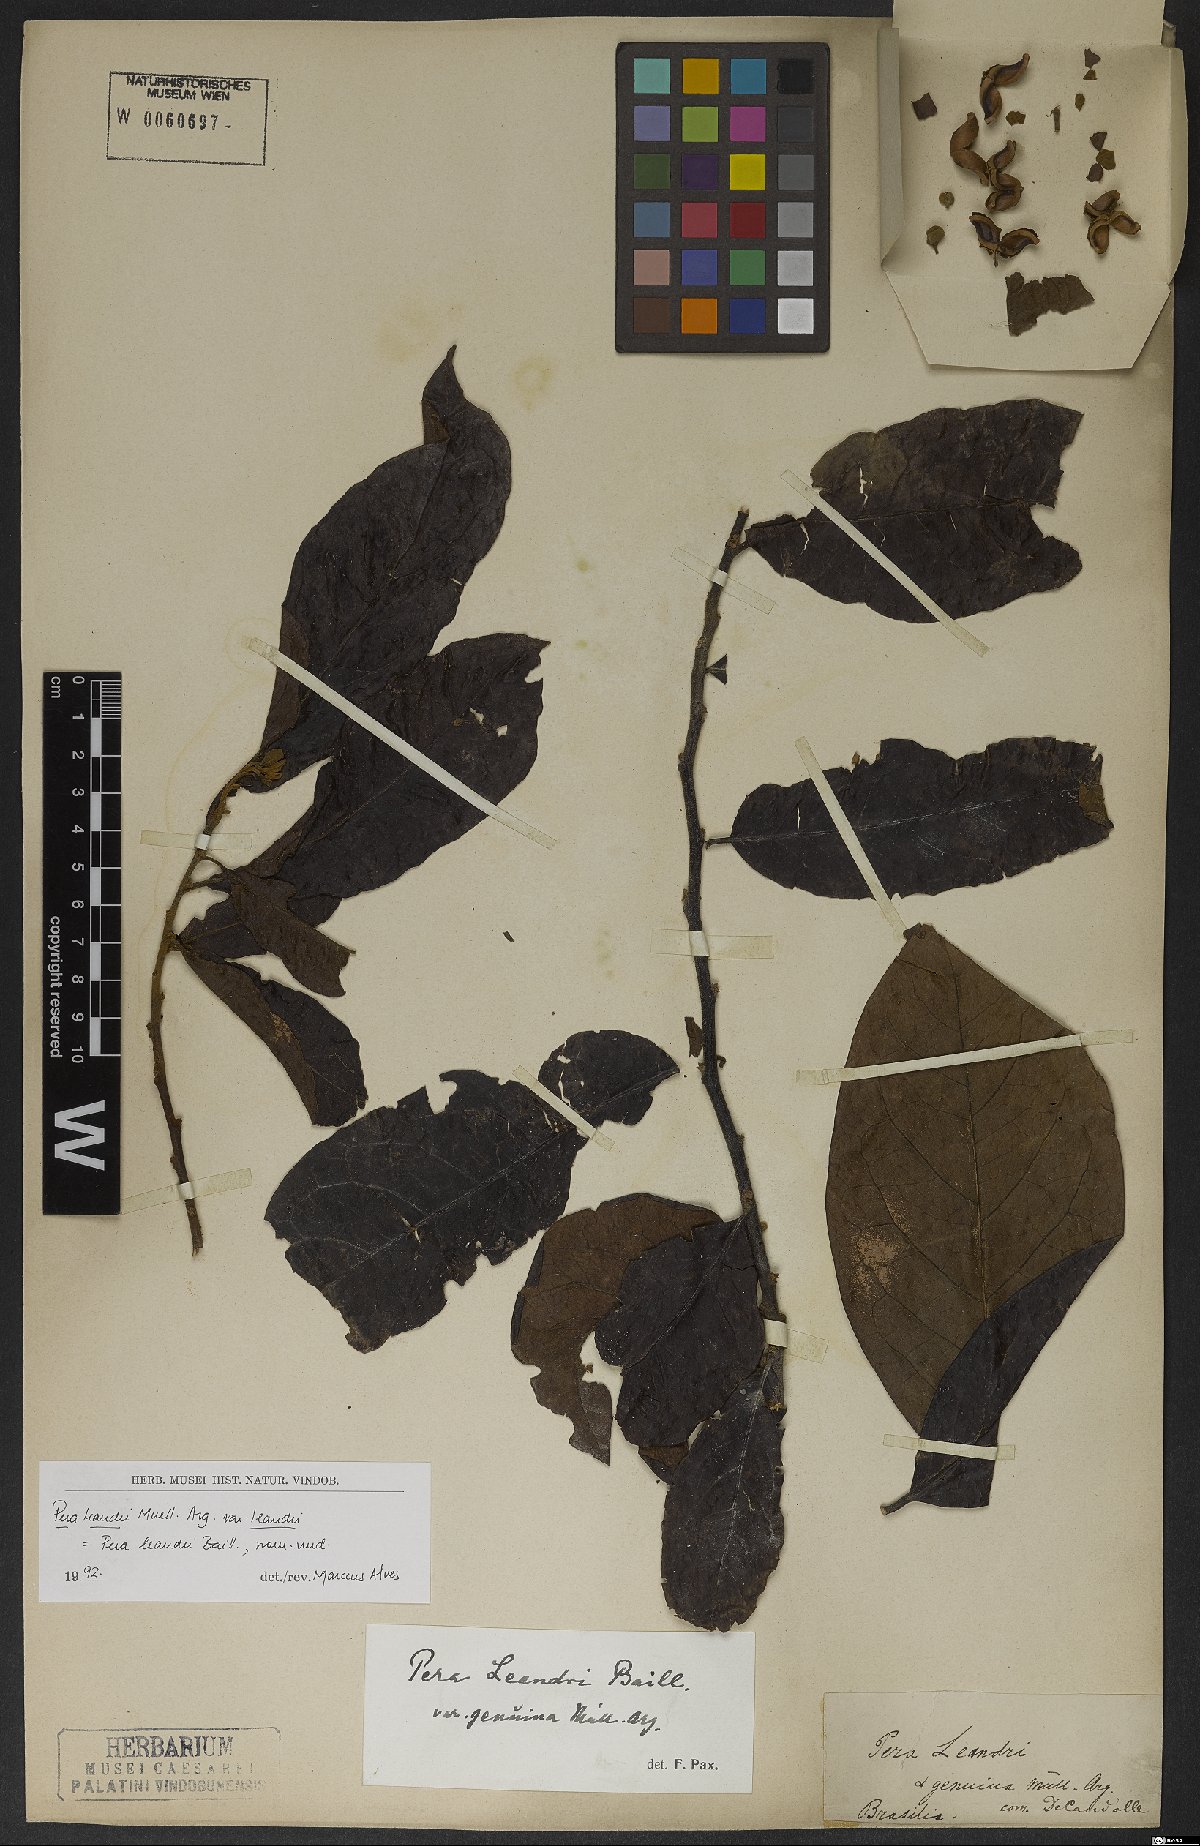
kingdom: Plantae
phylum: Tracheophyta
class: Magnoliopsida
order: Malpighiales
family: Peraceae
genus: Pera
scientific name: Pera heteranthera
